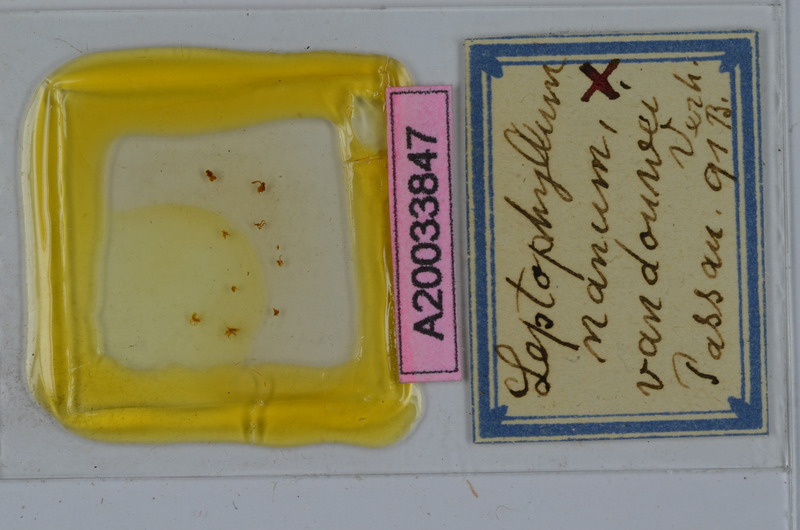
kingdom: Animalia
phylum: Arthropoda
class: Diplopoda
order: Julida
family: Julidae
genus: Leptophyllum
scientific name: Leptophyllum nanum
